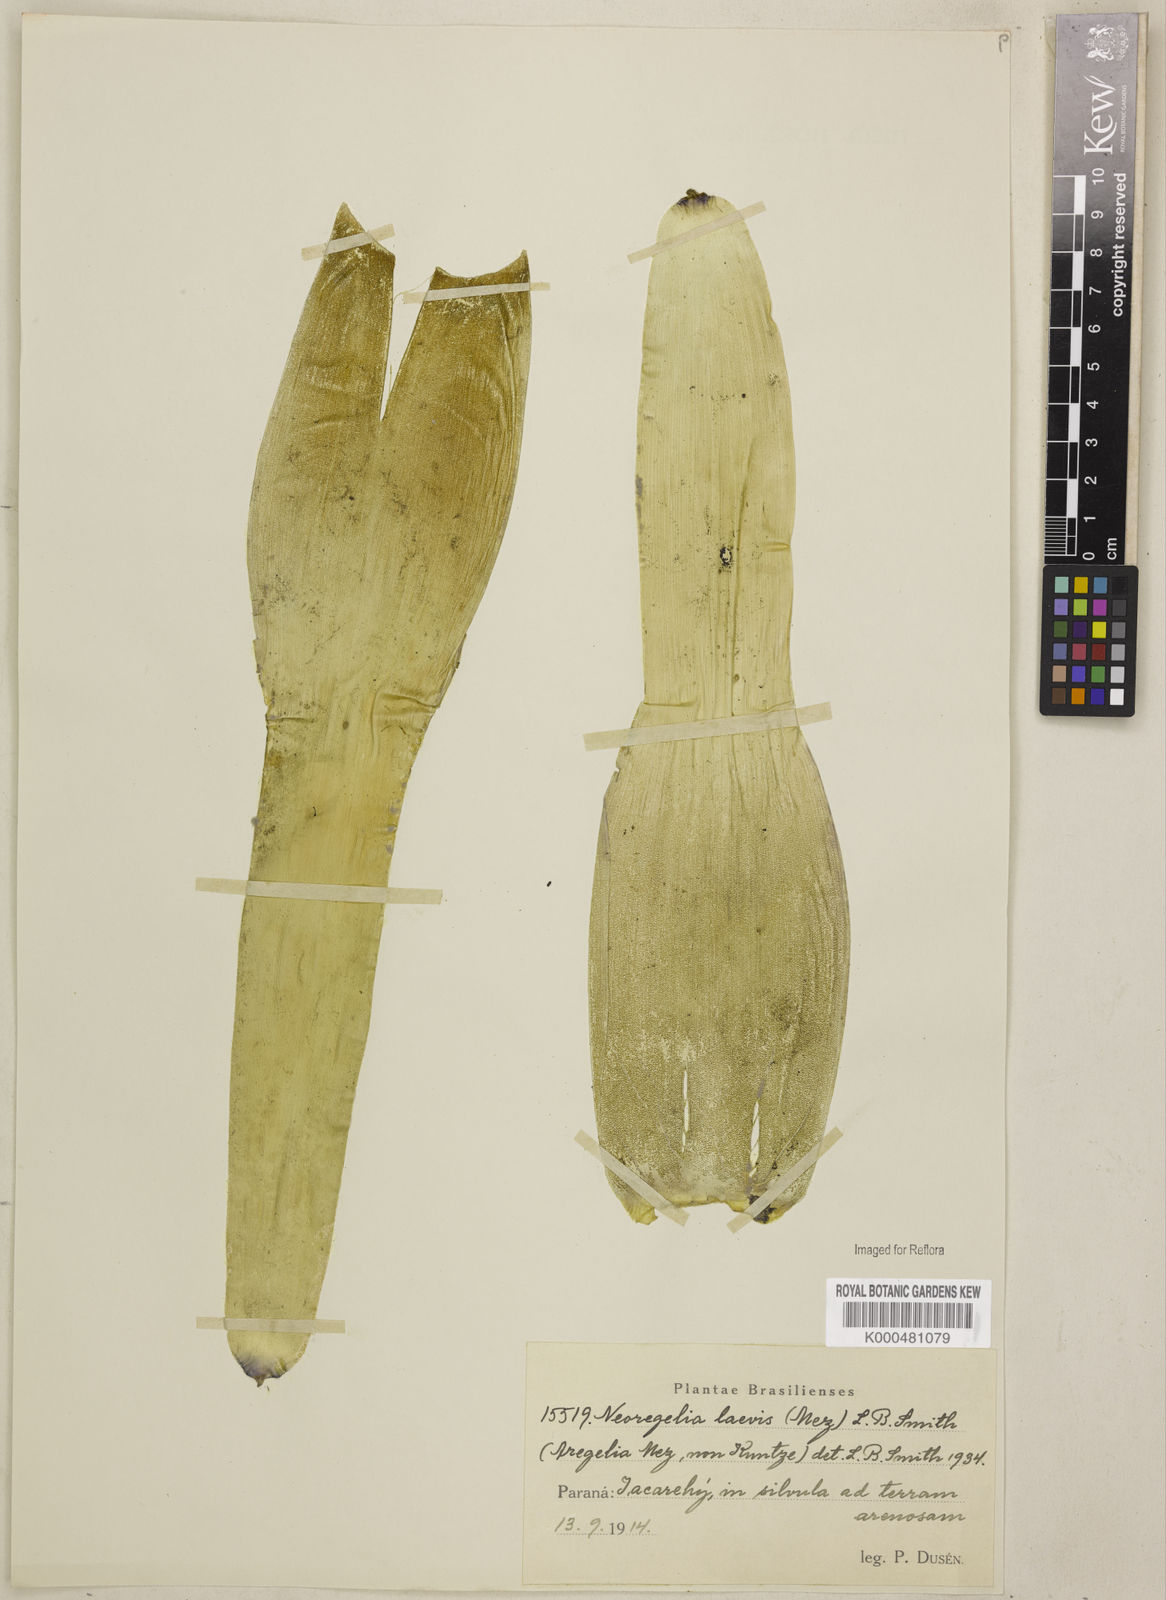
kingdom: Plantae
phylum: Tracheophyta
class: Liliopsida
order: Poales
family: Bromeliaceae
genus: Neoregelia
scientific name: Neoregelia laevis
